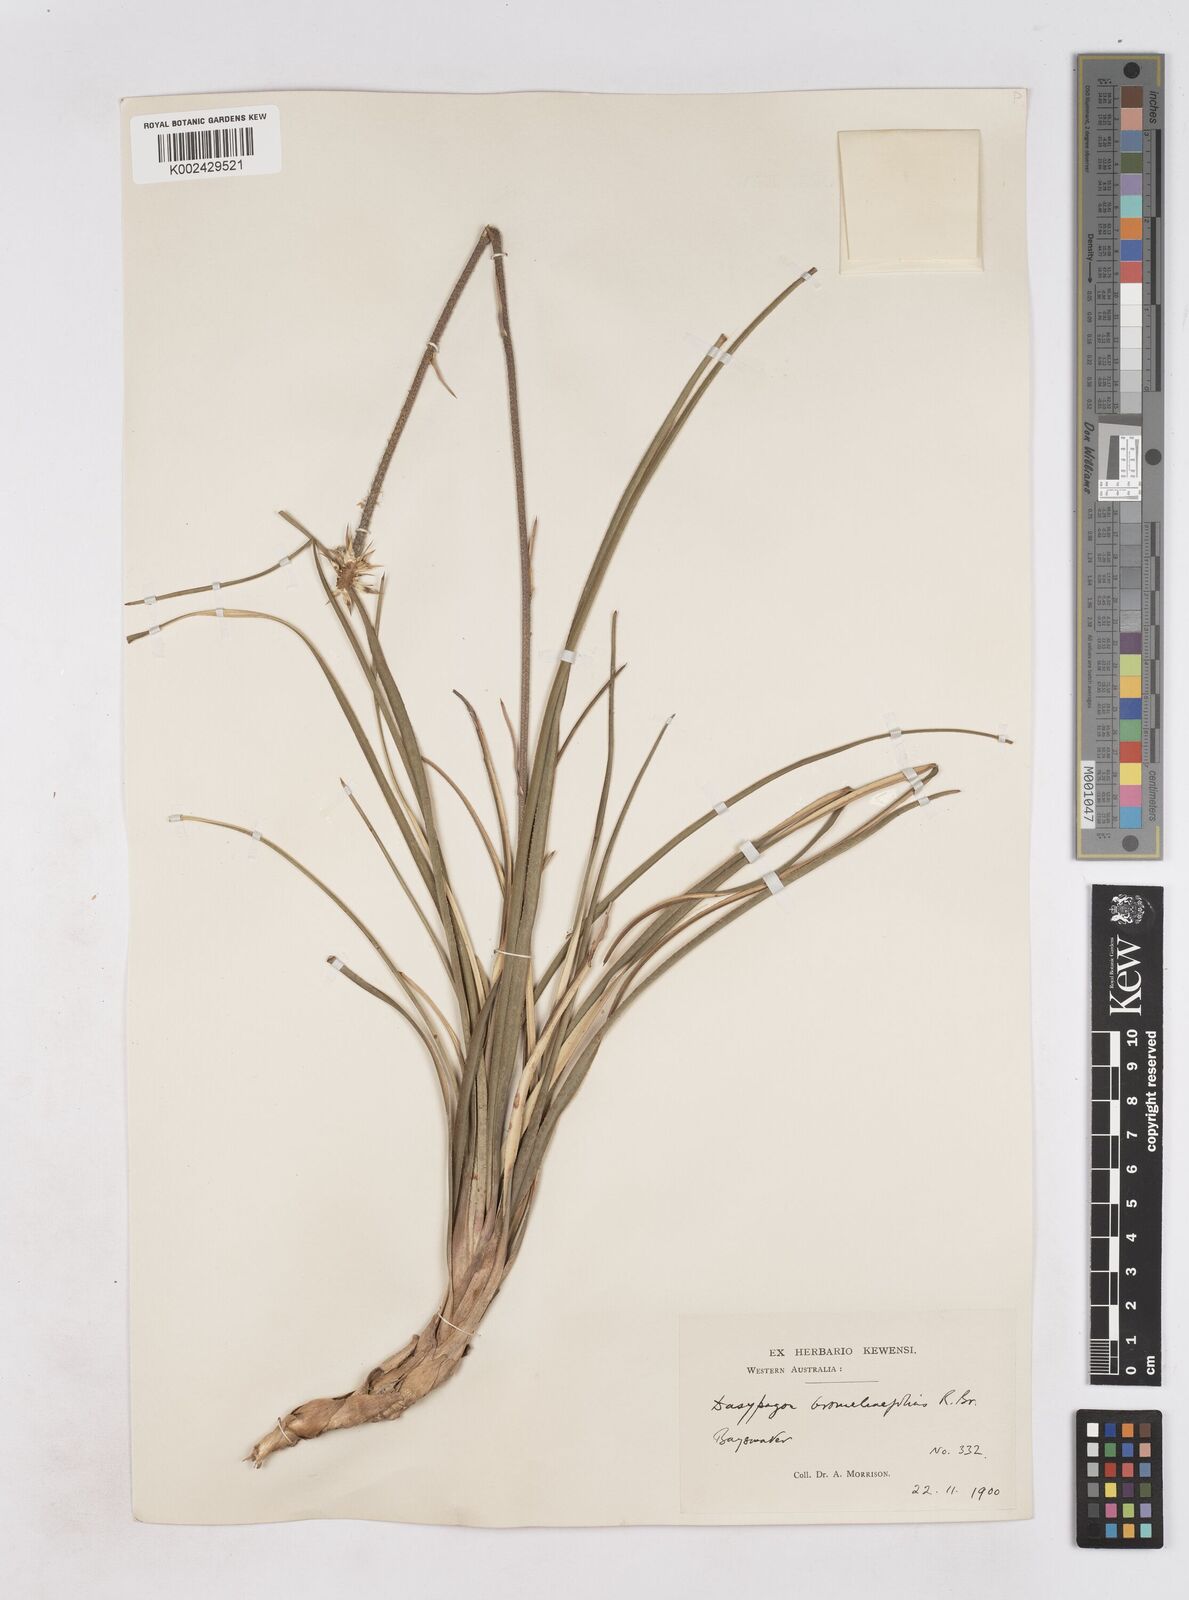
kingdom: Plantae
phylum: Tracheophyta
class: Liliopsida
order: Arecales
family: Dasypogonaceae
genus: Dasypogon
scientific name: Dasypogon bromeliifolius
